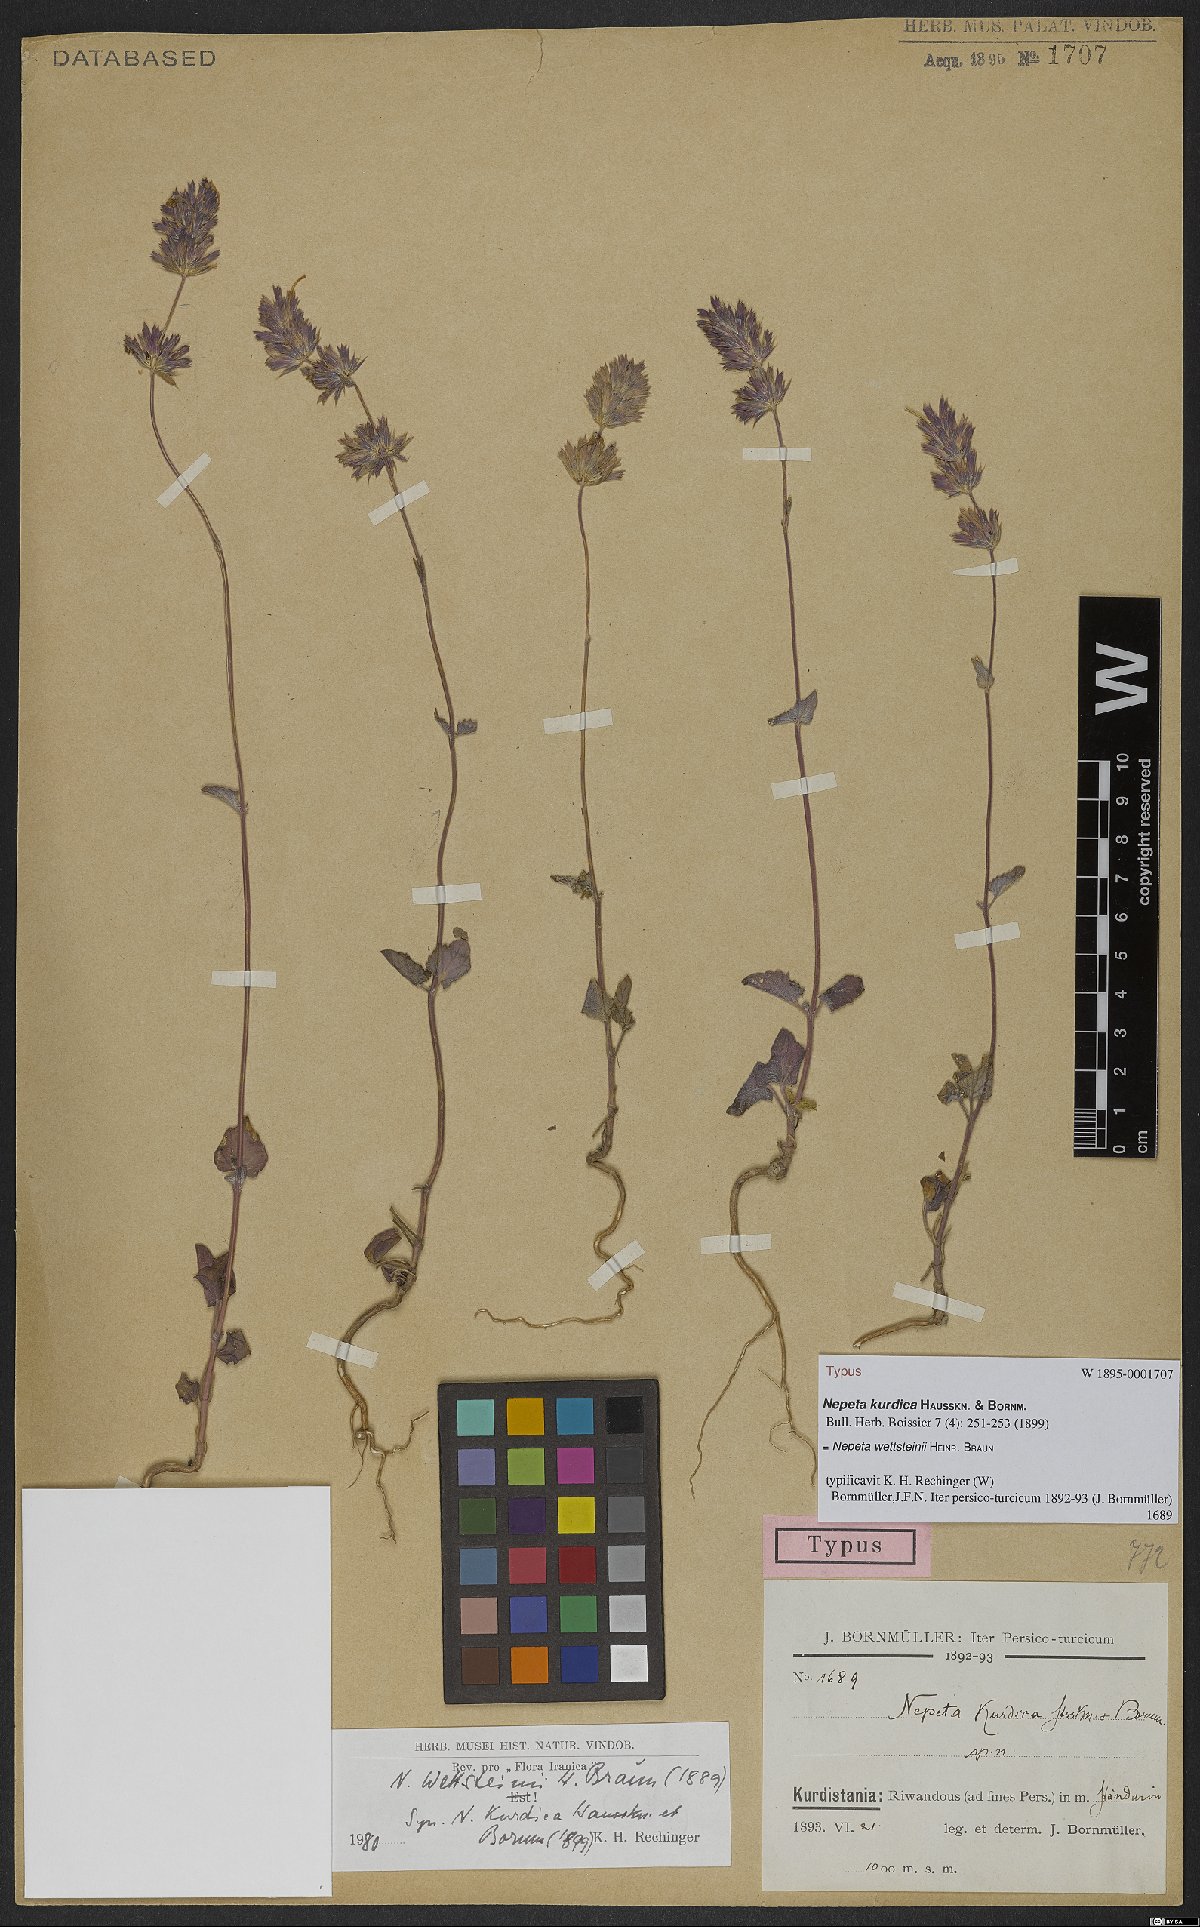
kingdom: Plantae
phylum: Tracheophyta
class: Magnoliopsida
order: Lamiales
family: Lamiaceae
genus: Nepeta
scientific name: Nepeta wettsteinii
